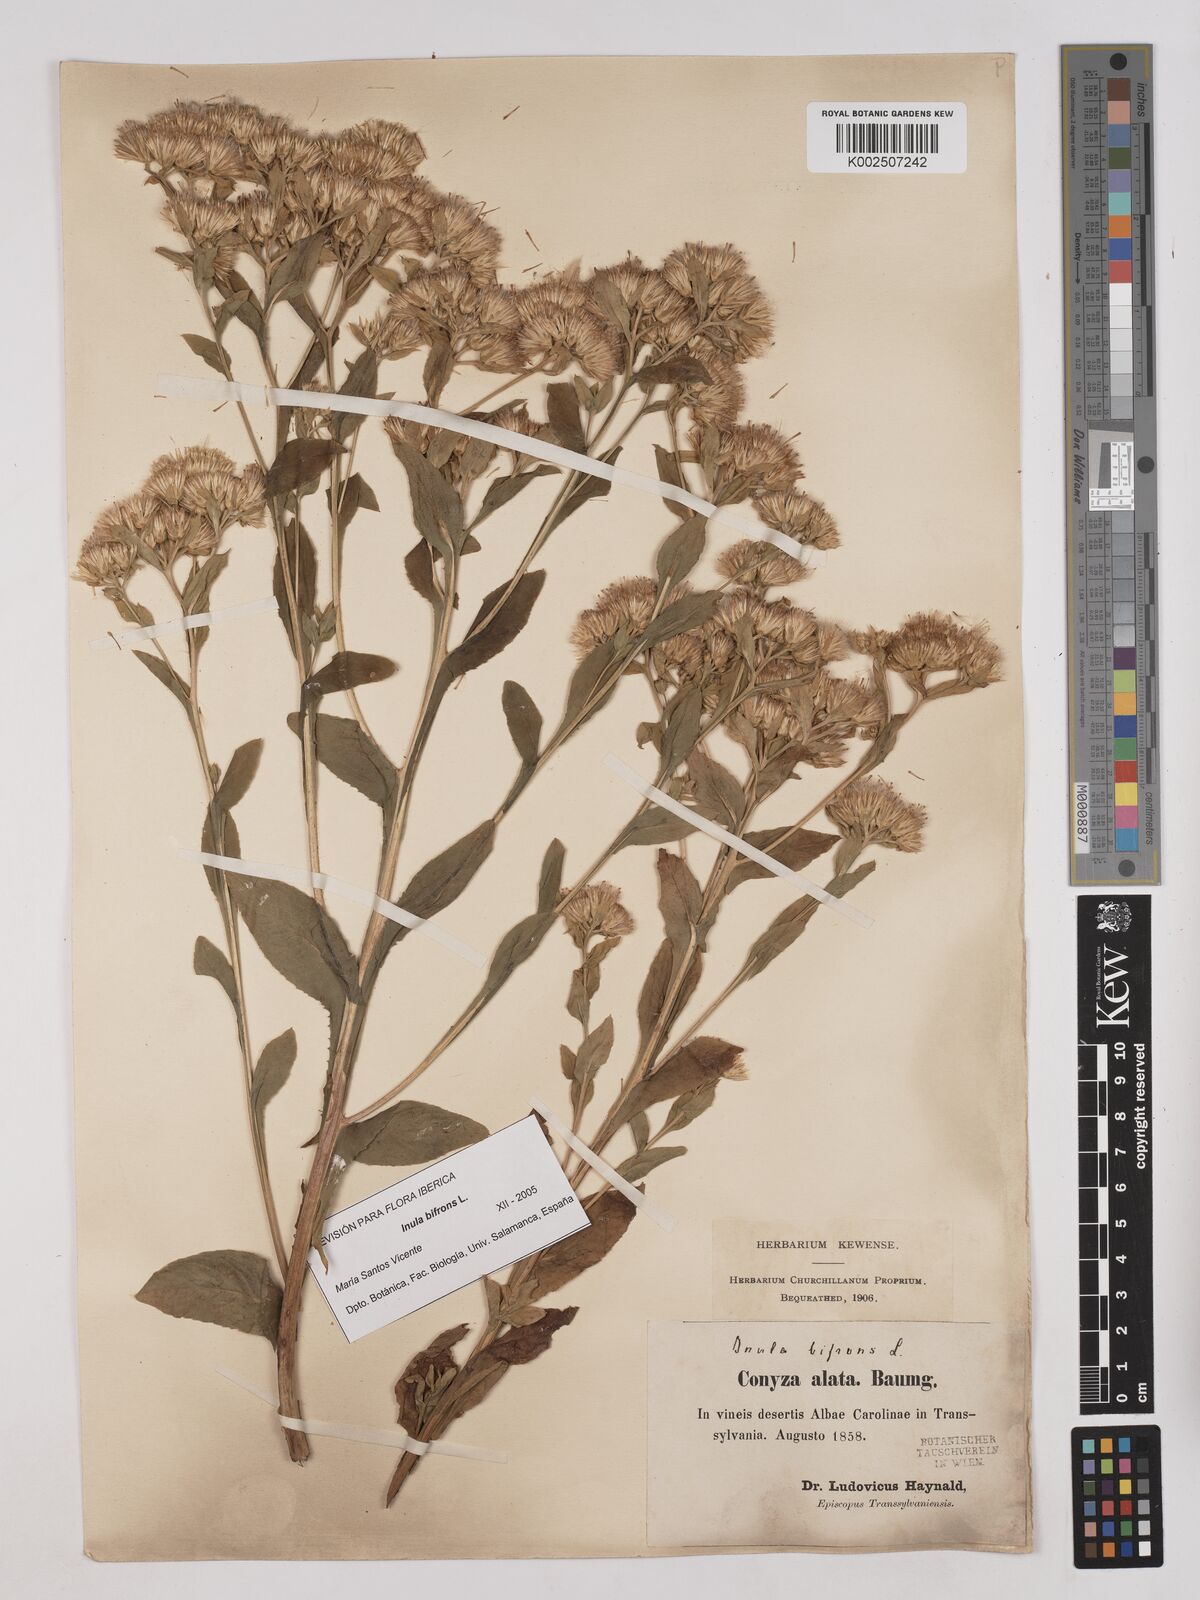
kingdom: Plantae
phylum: Tracheophyta
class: Magnoliopsida
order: Asterales
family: Asteraceae
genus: Pentanema
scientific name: Pentanema bifrons
